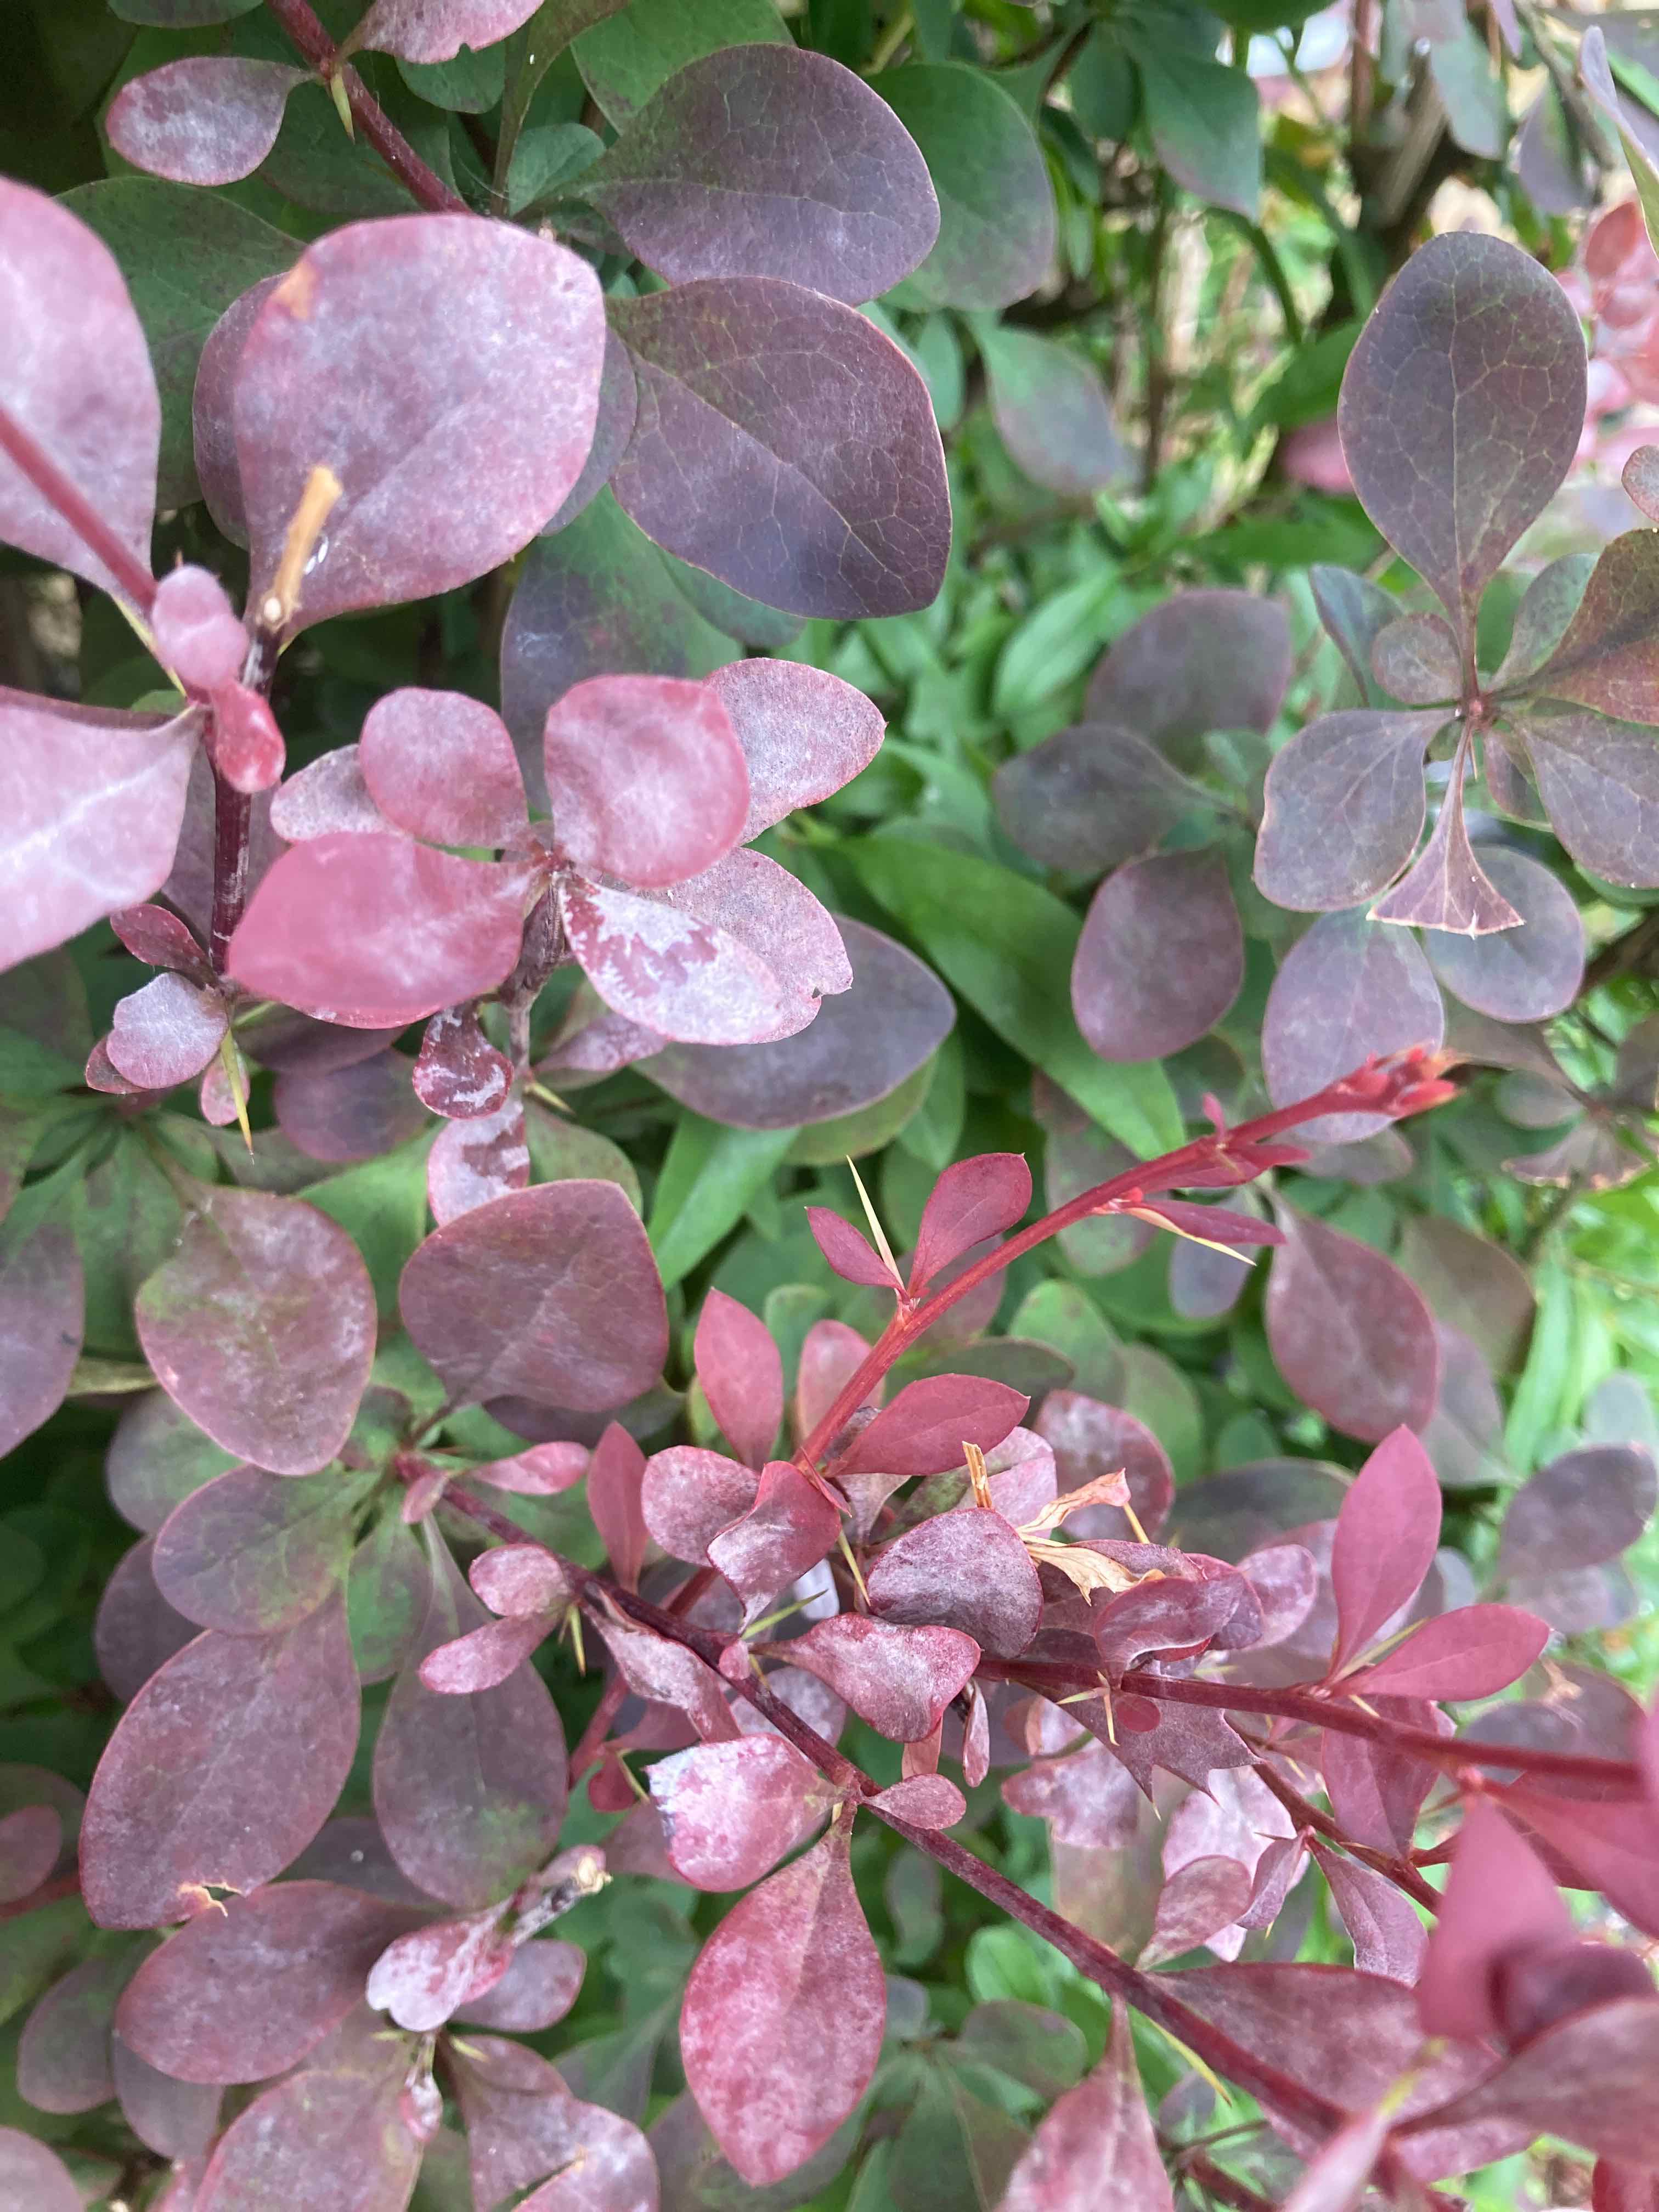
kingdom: Fungi
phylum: Ascomycota
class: Leotiomycetes
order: Helotiales
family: Erysiphaceae
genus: Erysiphe
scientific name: Erysiphe berberidis
